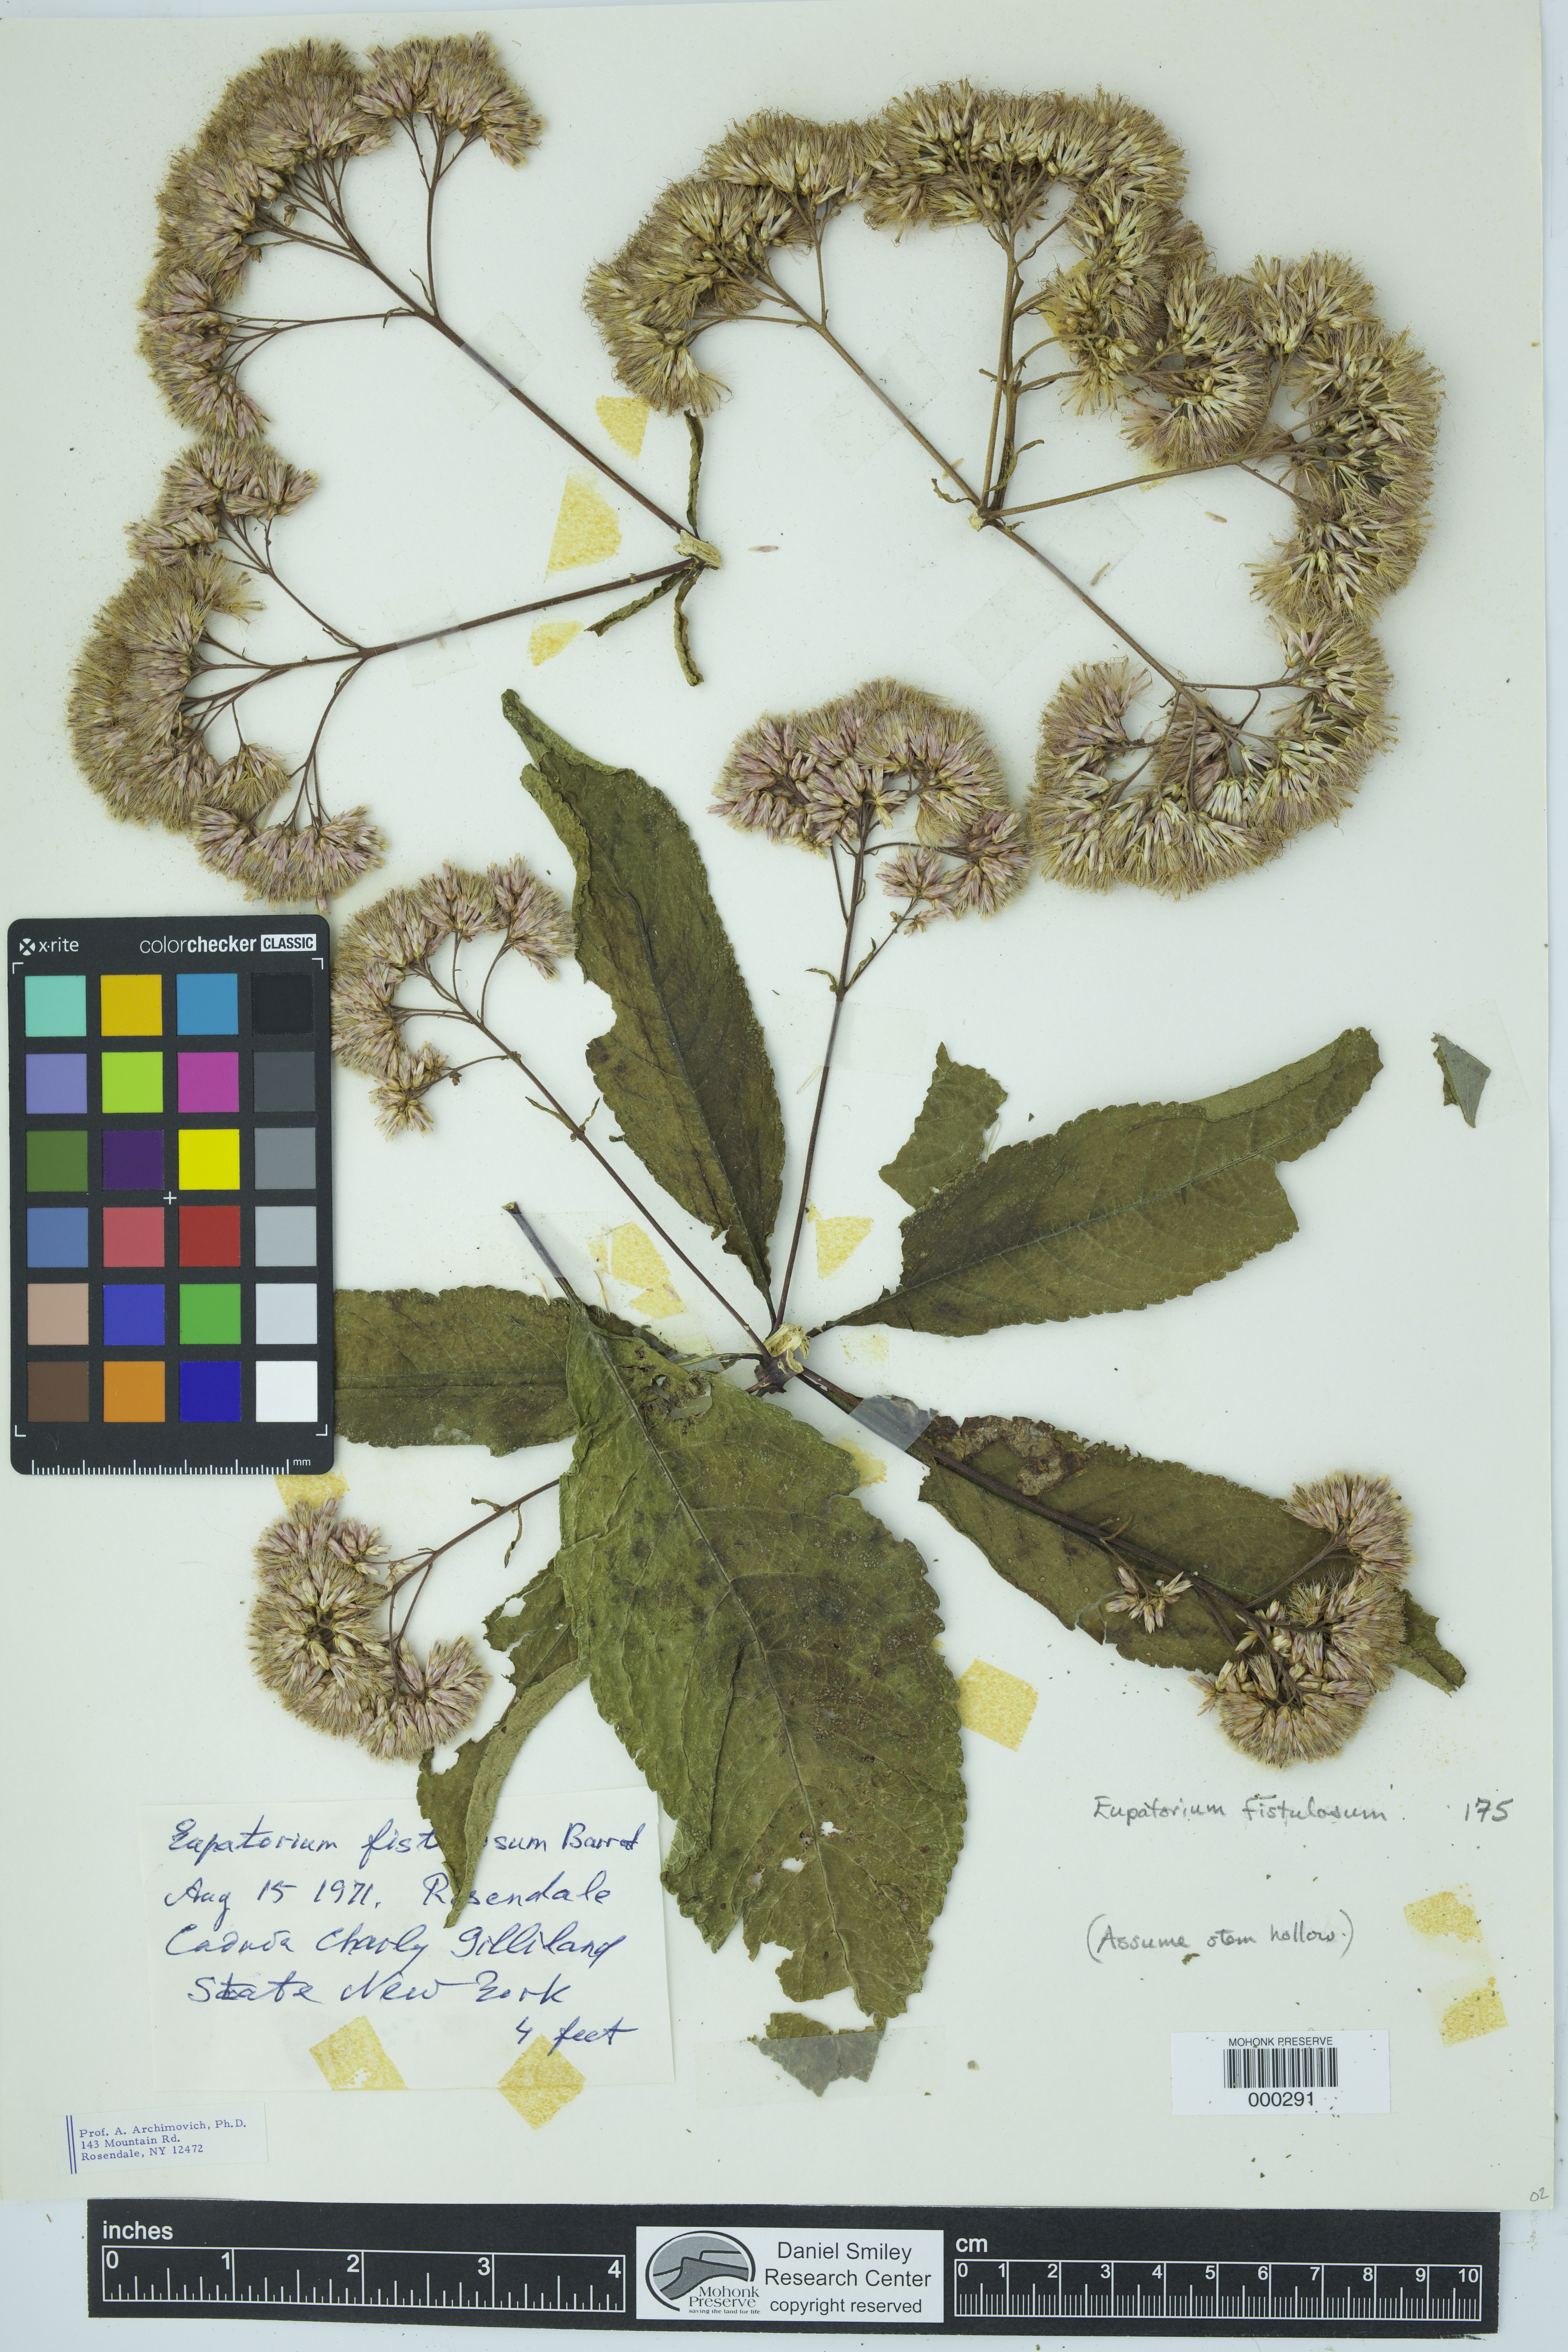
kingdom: Plantae
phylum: Tracheophyta
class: Magnoliopsida
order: Asterales
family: Asteraceae
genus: Eutrochium
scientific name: Eutrochium fistulosum
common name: Trumpetweed
